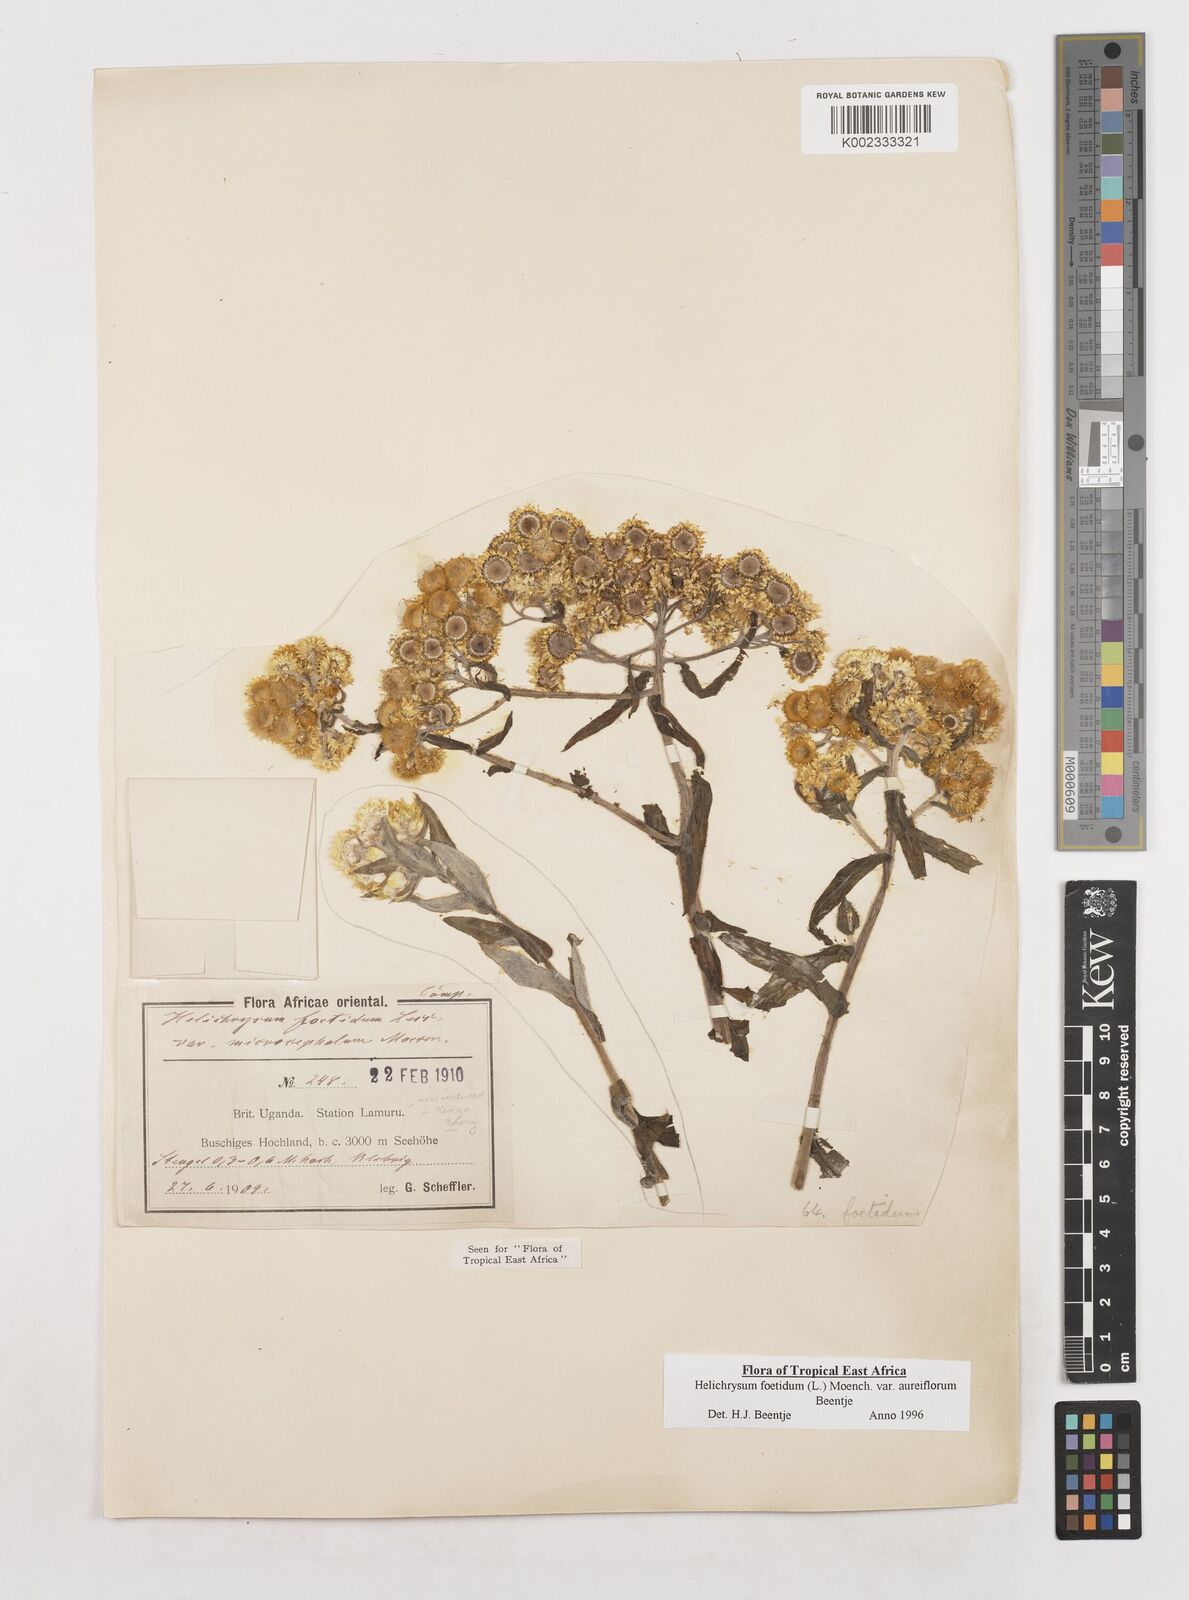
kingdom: Plantae
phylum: Tracheophyta
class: Magnoliopsida
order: Asterales
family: Asteraceae
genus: Helichrysum
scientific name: Helichrysum foetidum
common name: Stinking everlasting
